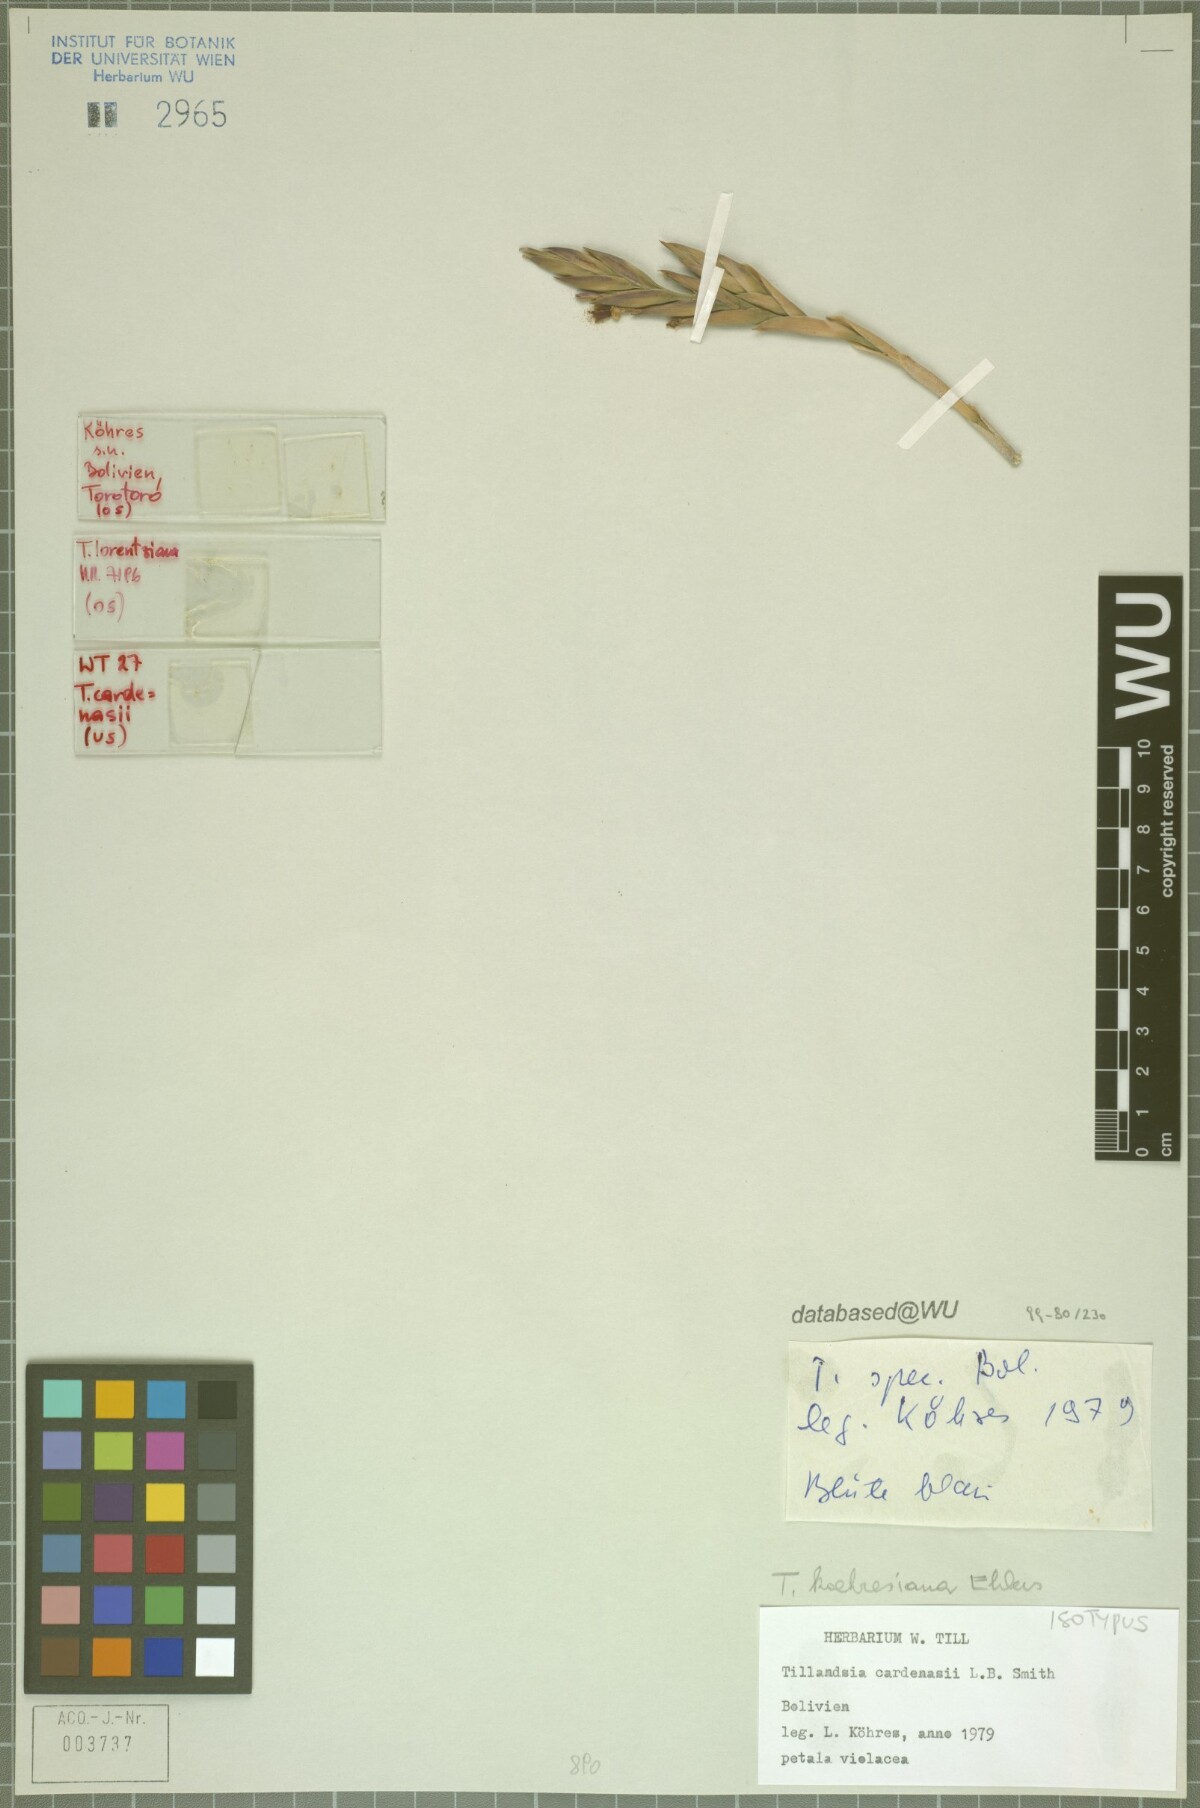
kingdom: Plantae
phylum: Tracheophyta
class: Liliopsida
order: Poales
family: Bromeliaceae
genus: Tillandsia
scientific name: Tillandsia koehresiana
